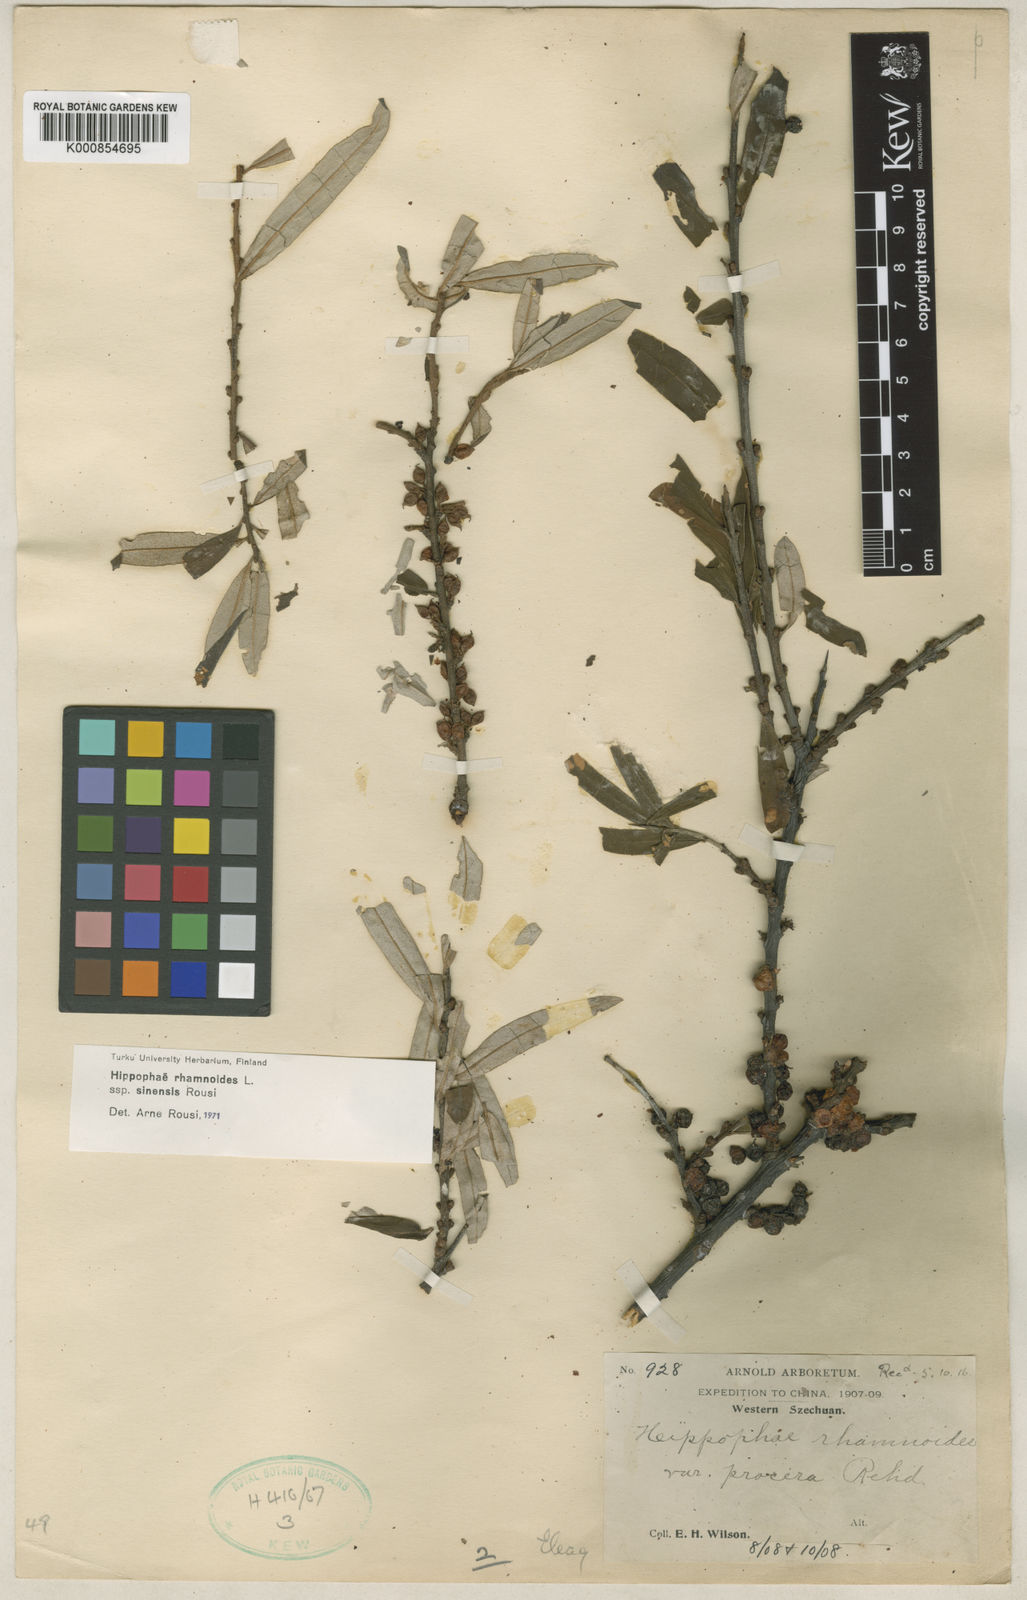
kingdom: Plantae
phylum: Tracheophyta
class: Magnoliopsida
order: Rosales
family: Elaeagnaceae
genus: Hippophae
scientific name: Hippophae rhamnoides
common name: Sea-buckthorn
